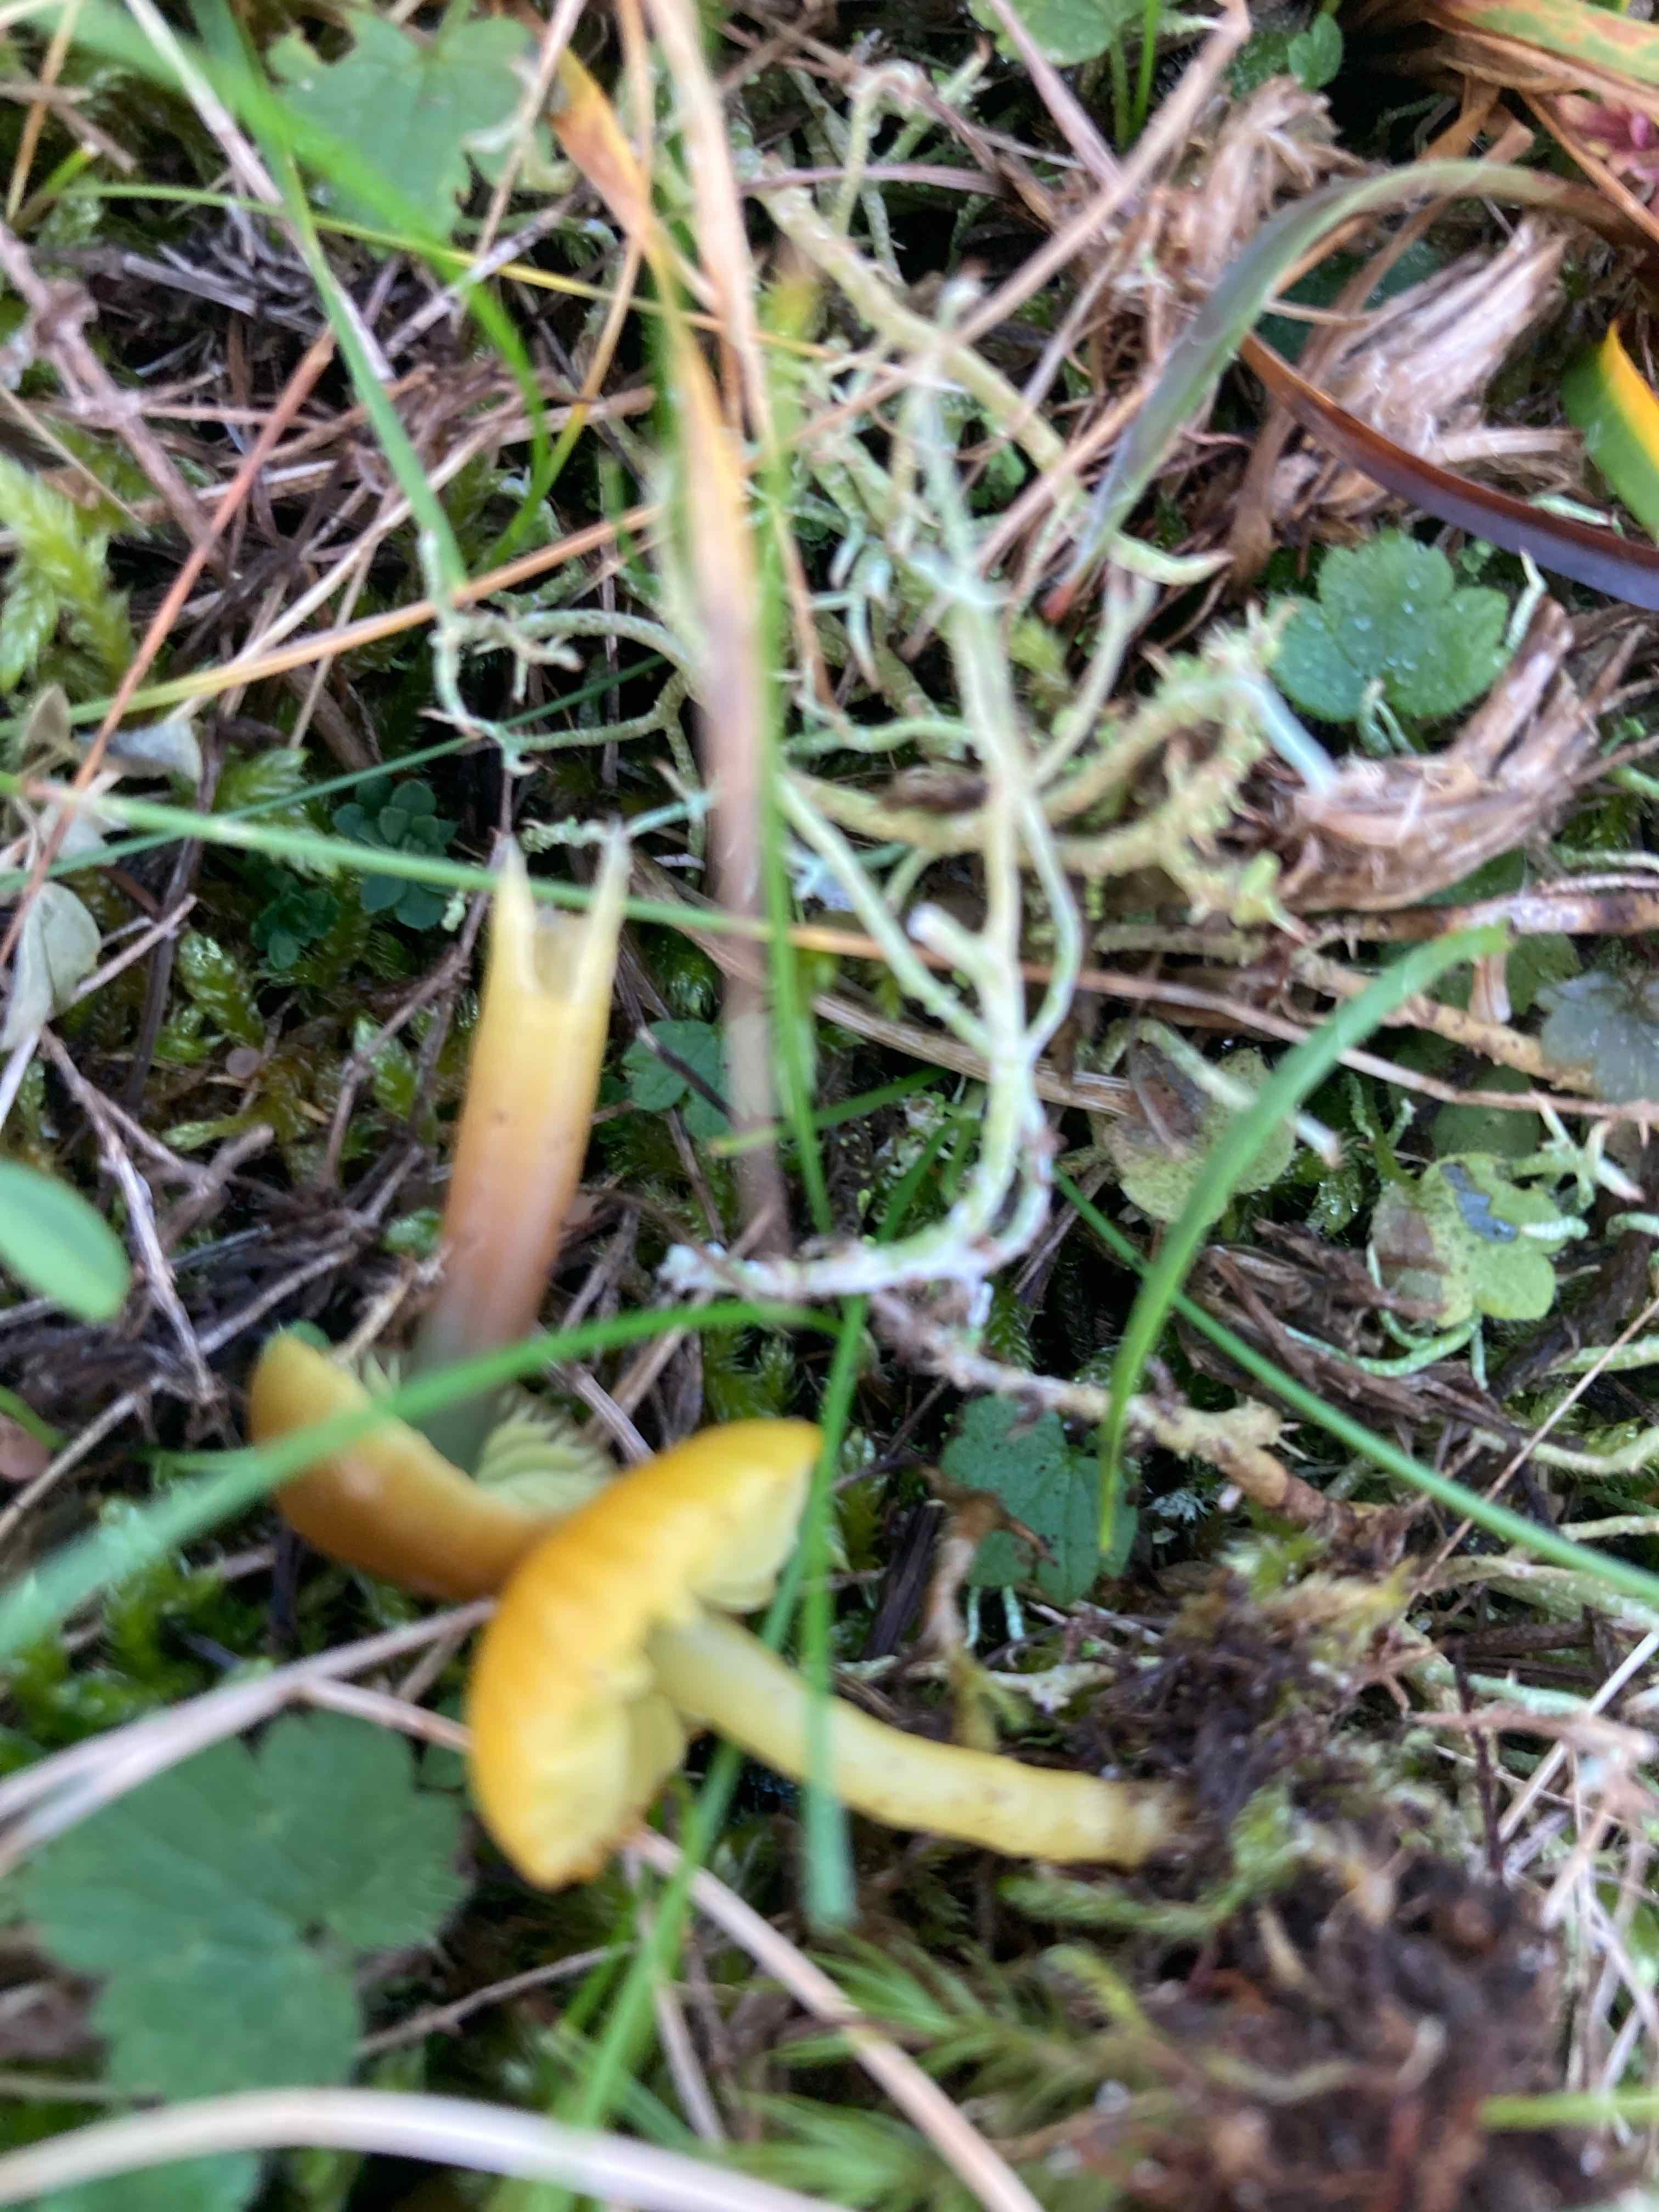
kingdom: Fungi
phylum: Basidiomycota
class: Agaricomycetes
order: Agaricales
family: Hygrophoraceae
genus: Gliophorus
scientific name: Gliophorus psittacinus
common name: papegøje-vokshat
